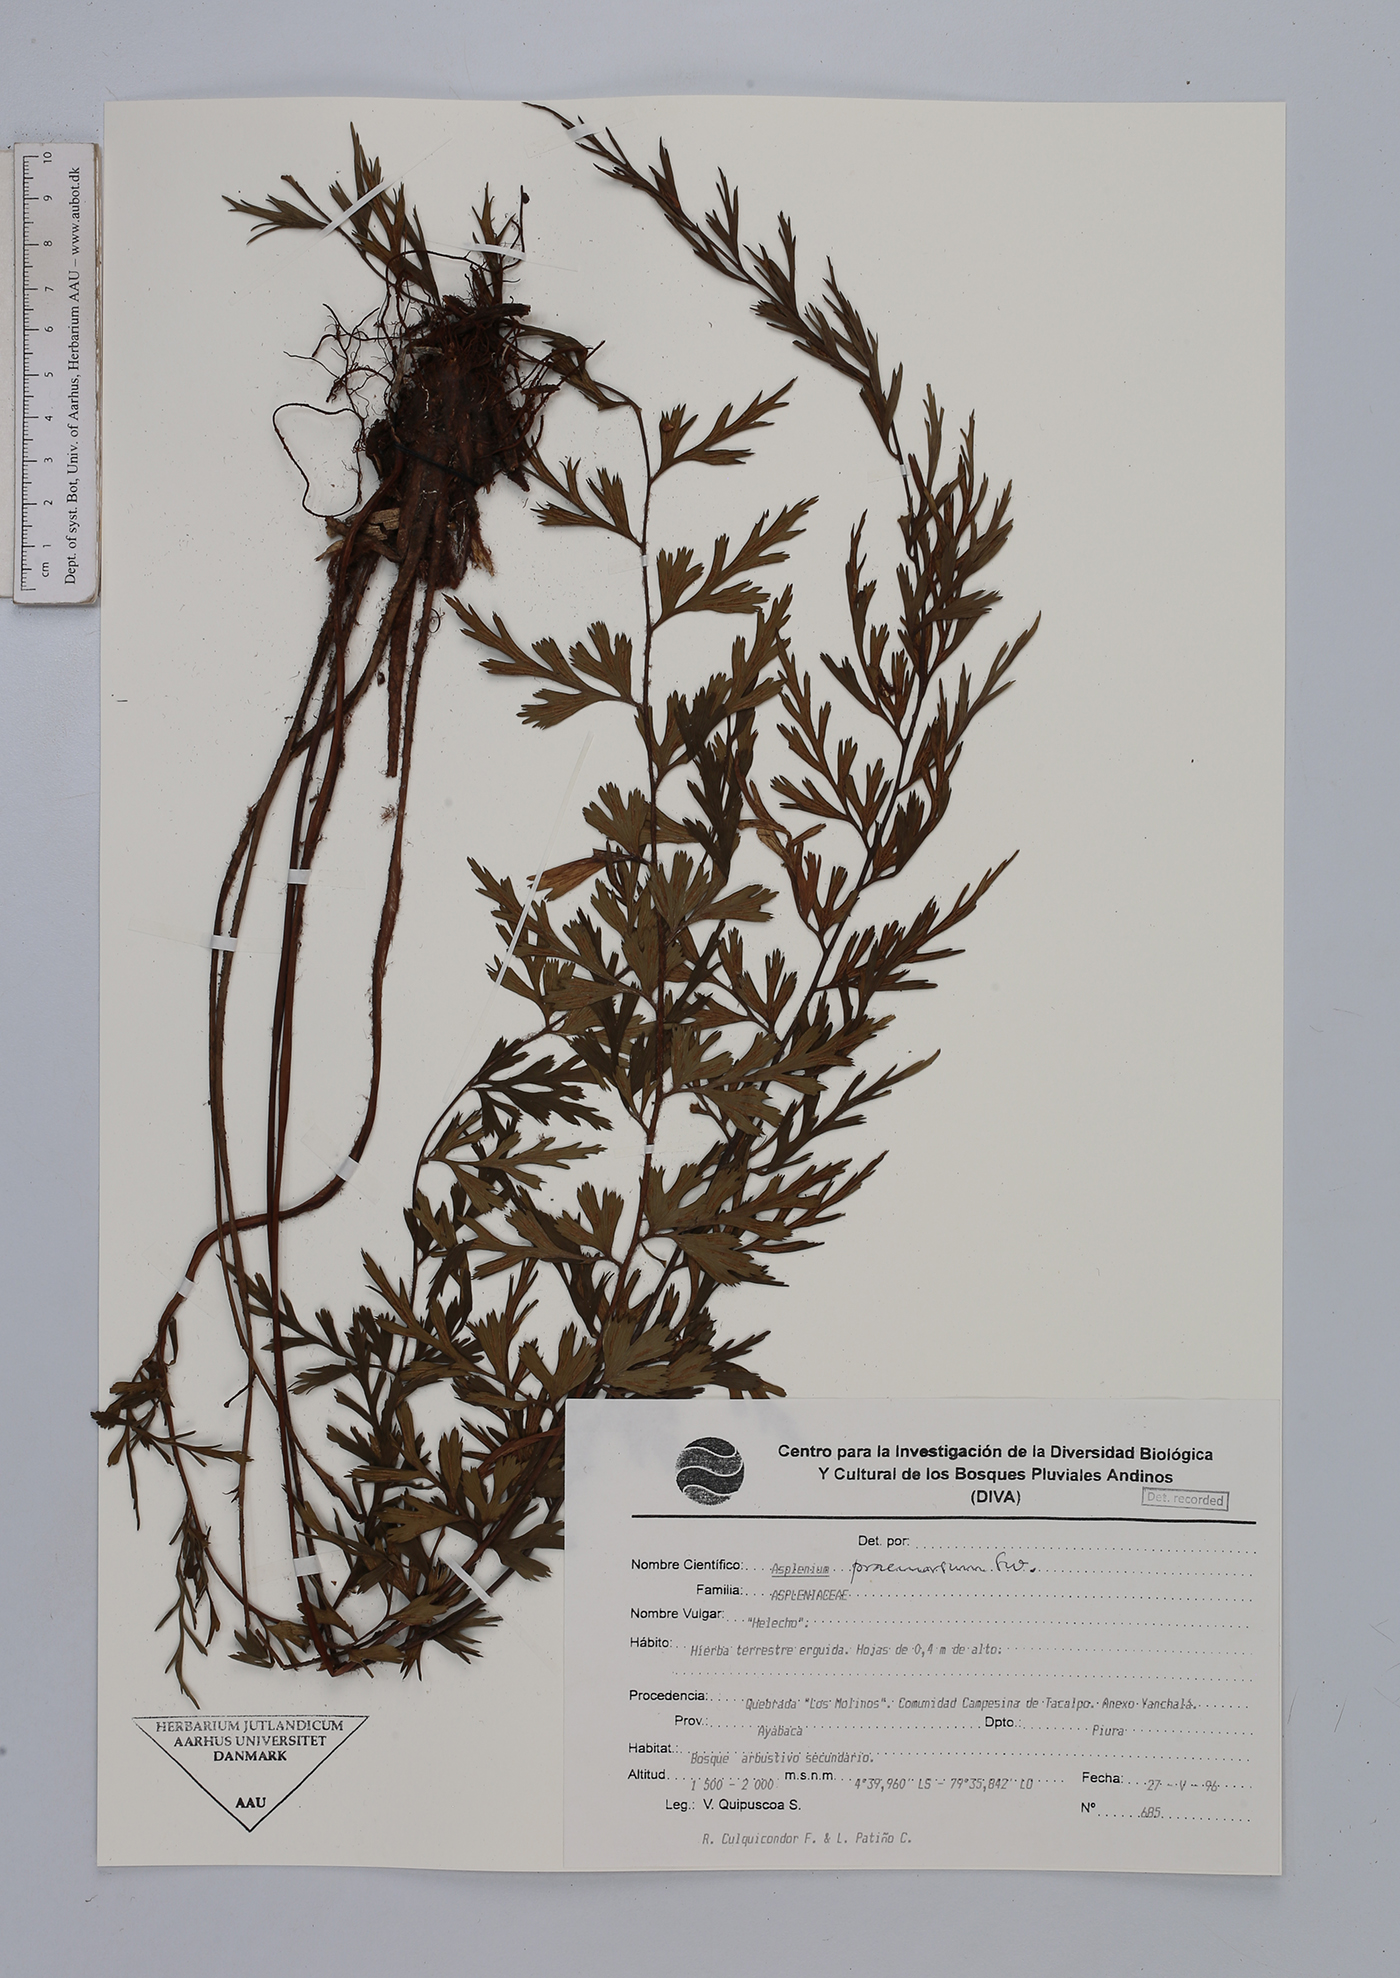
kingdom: Plantae
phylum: Tracheophyta
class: Polypodiopsida
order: Polypodiales
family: Aspleniaceae
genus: Asplenium
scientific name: Asplenium praemorsum
